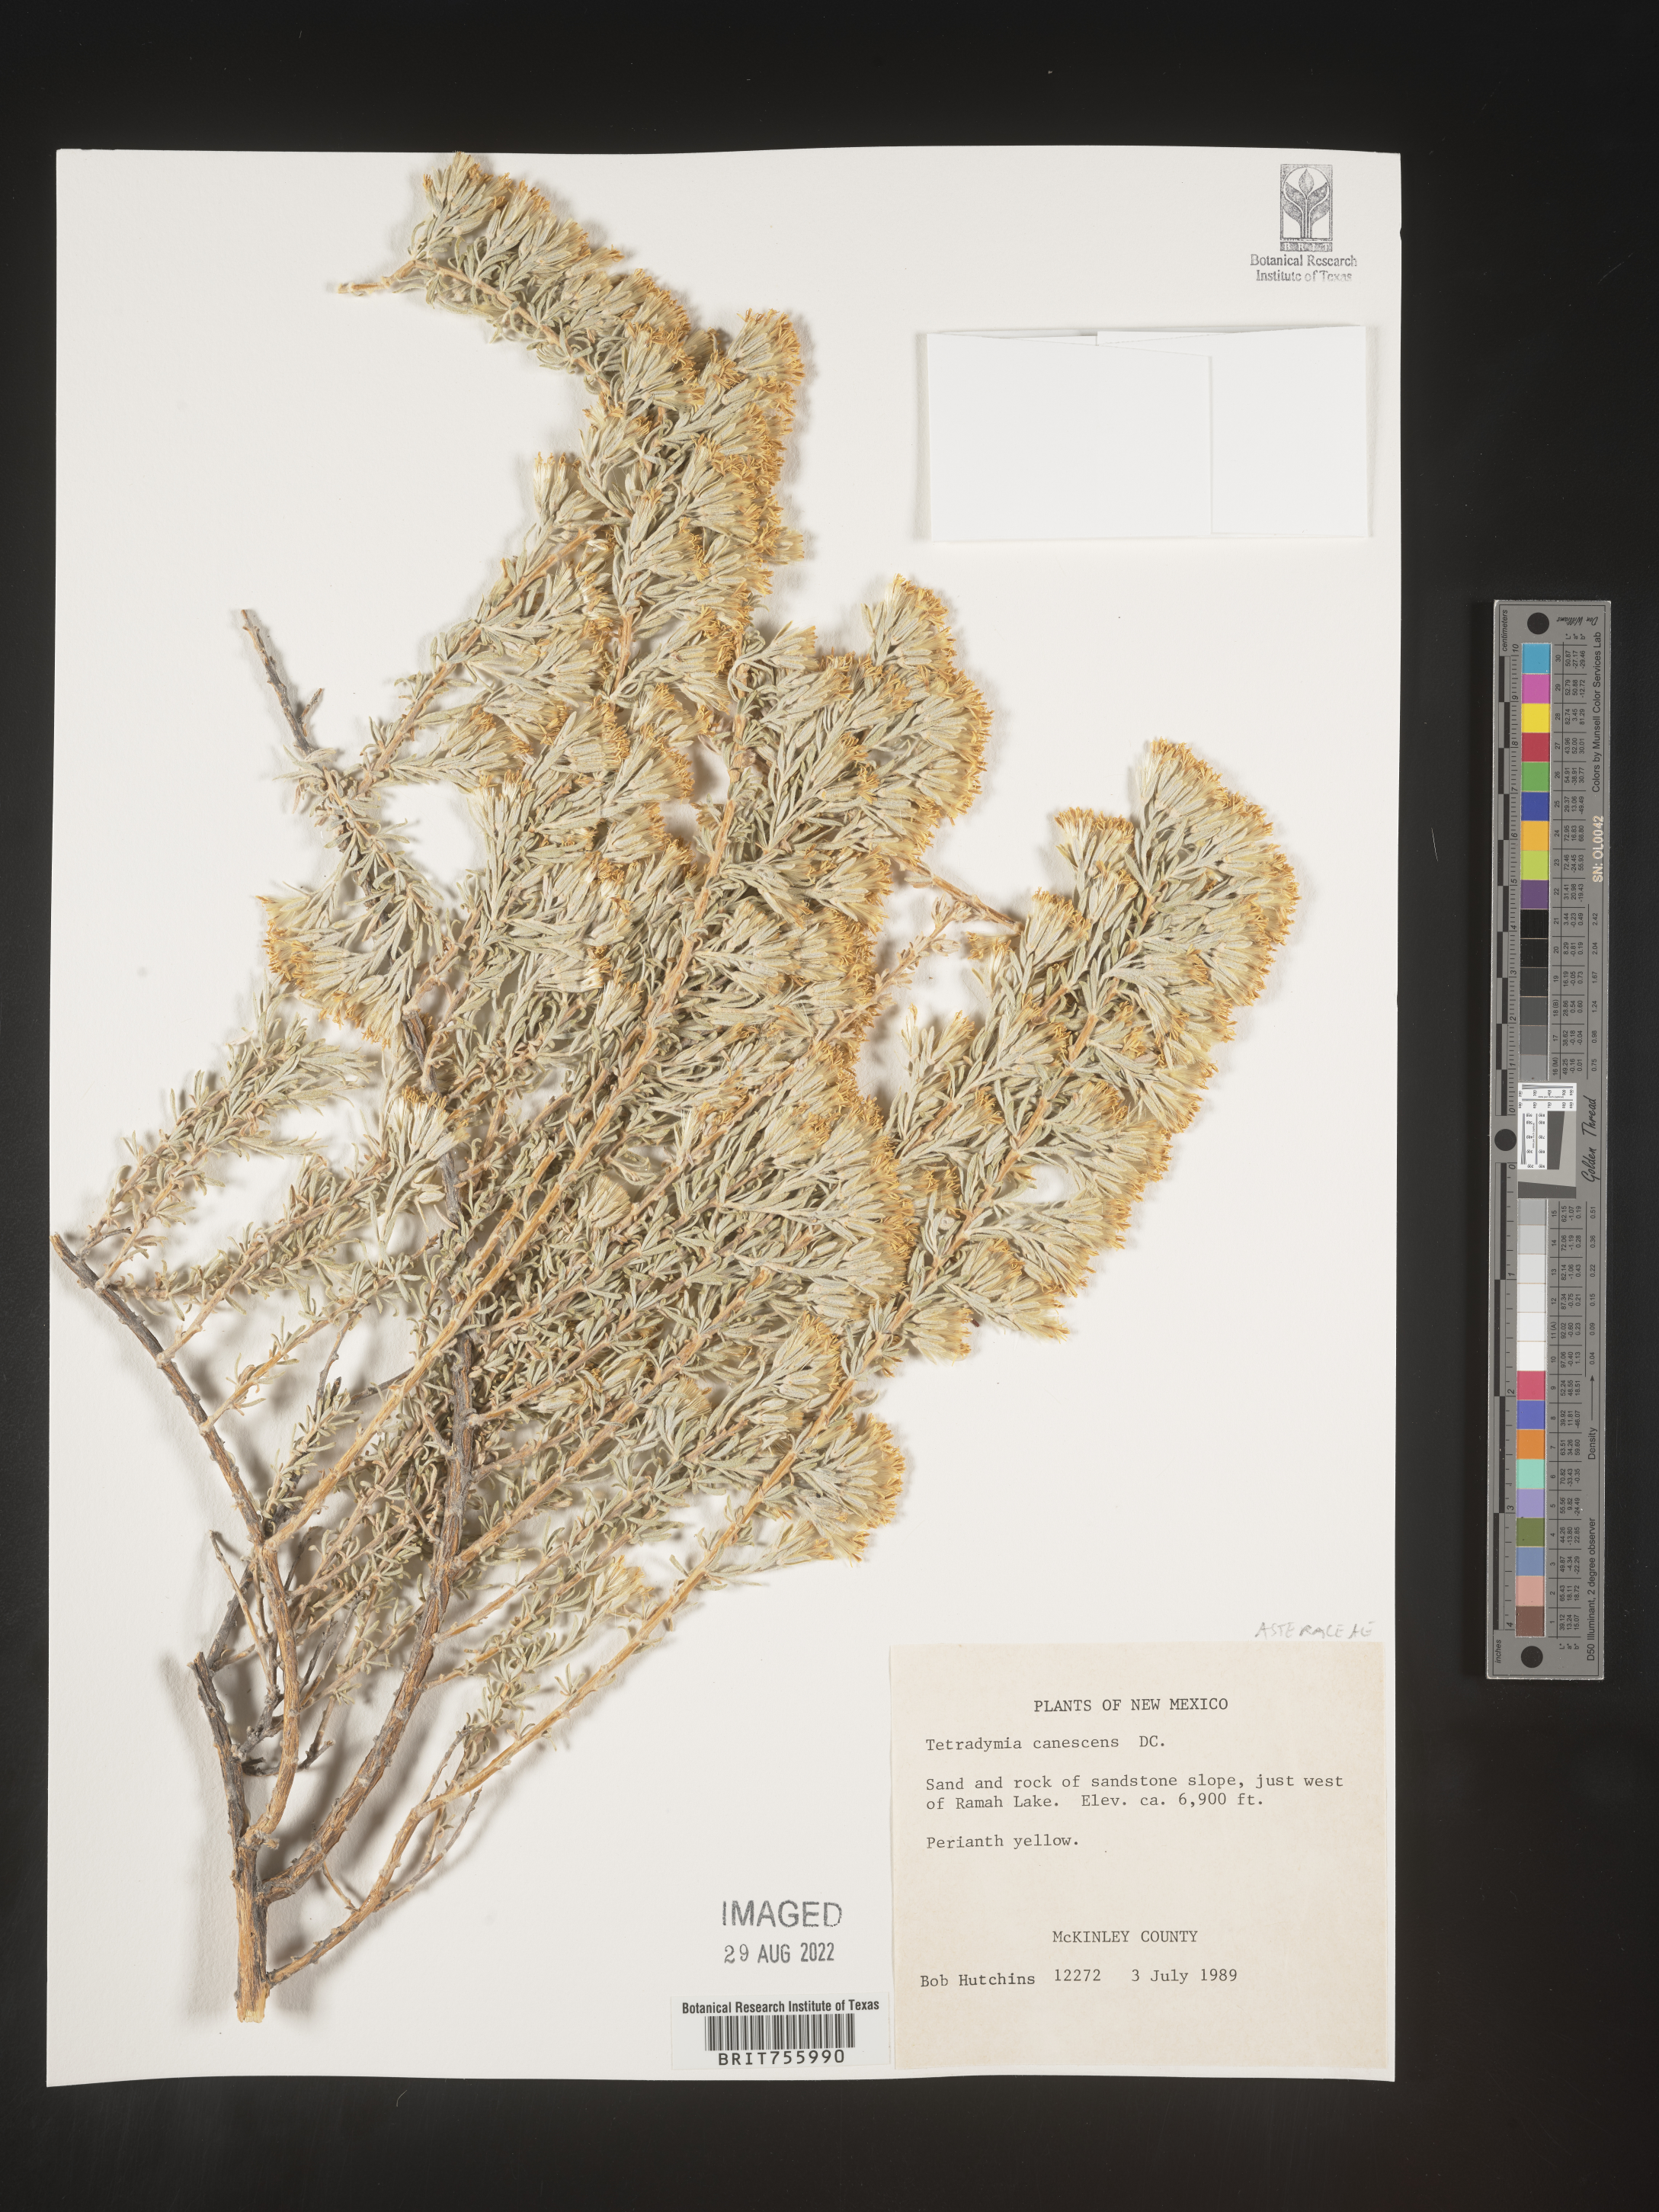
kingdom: Plantae
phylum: Tracheophyta
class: Magnoliopsida
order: Asterales
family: Asteraceae
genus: Tetradymia
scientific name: Tetradymia canescens
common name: Spineless horsebrush
